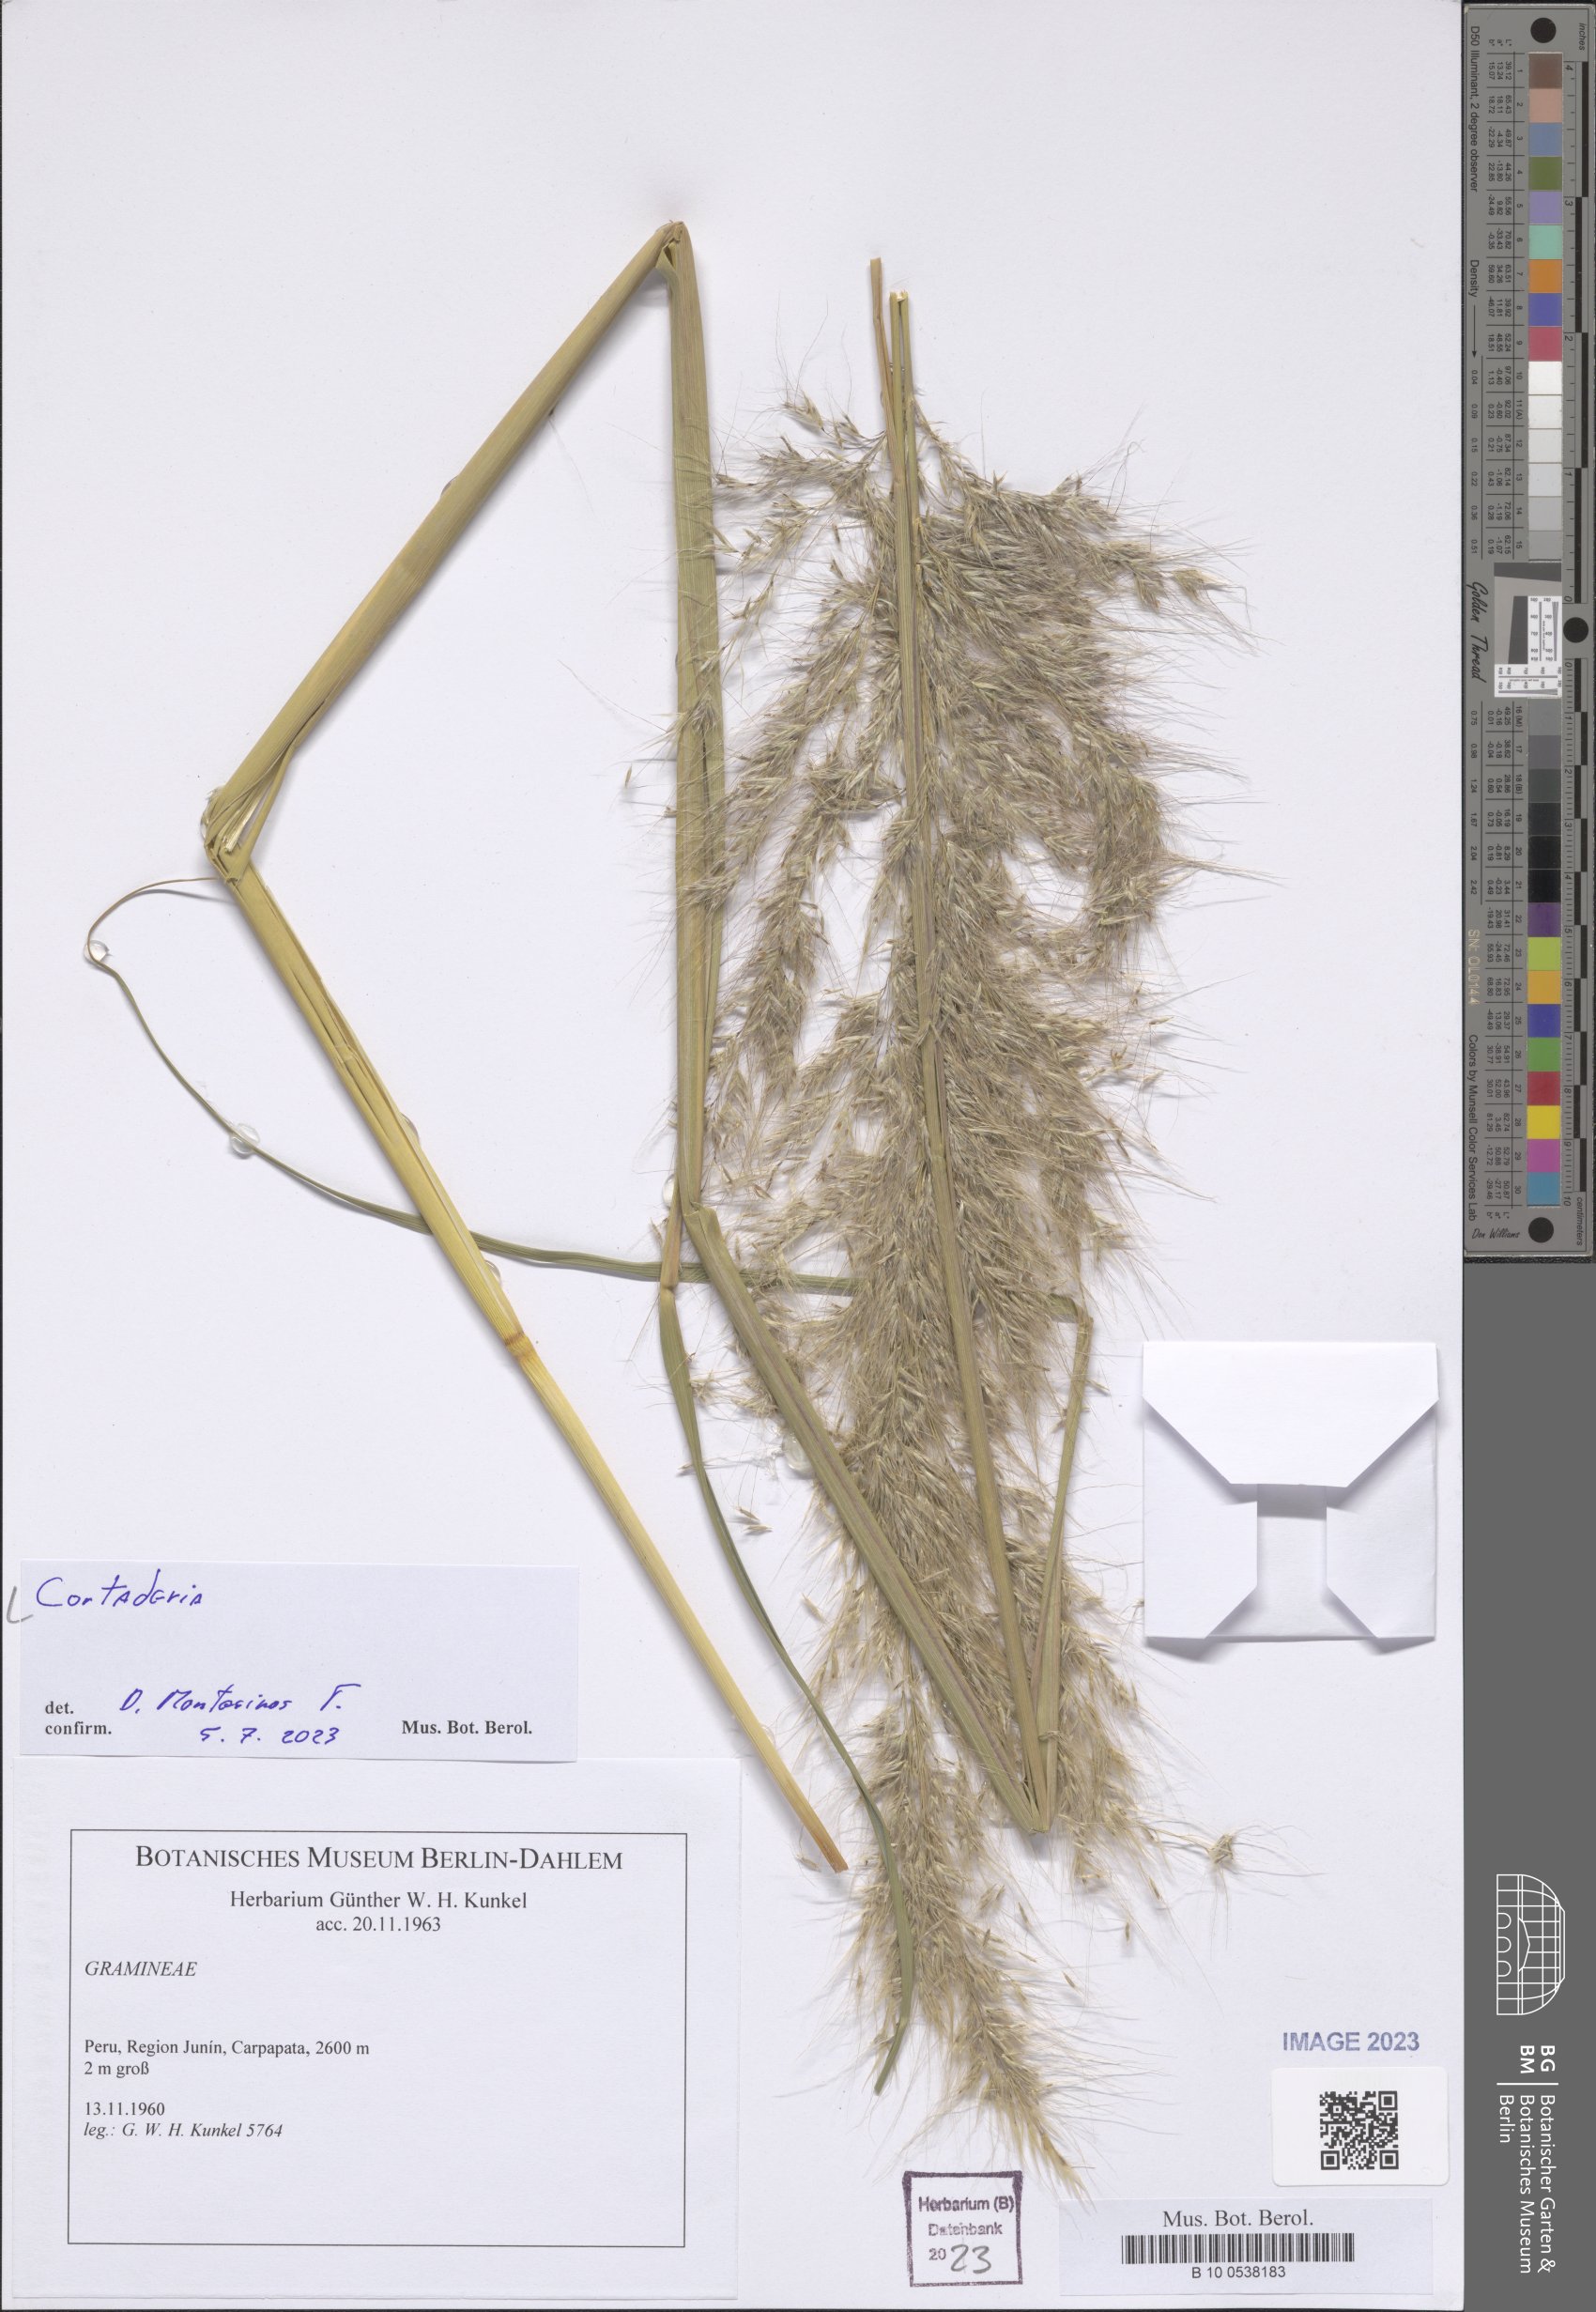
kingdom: Plantae
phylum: Tracheophyta
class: Liliopsida
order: Poales
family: Poaceae
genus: Cortaderia
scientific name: Cortaderia
